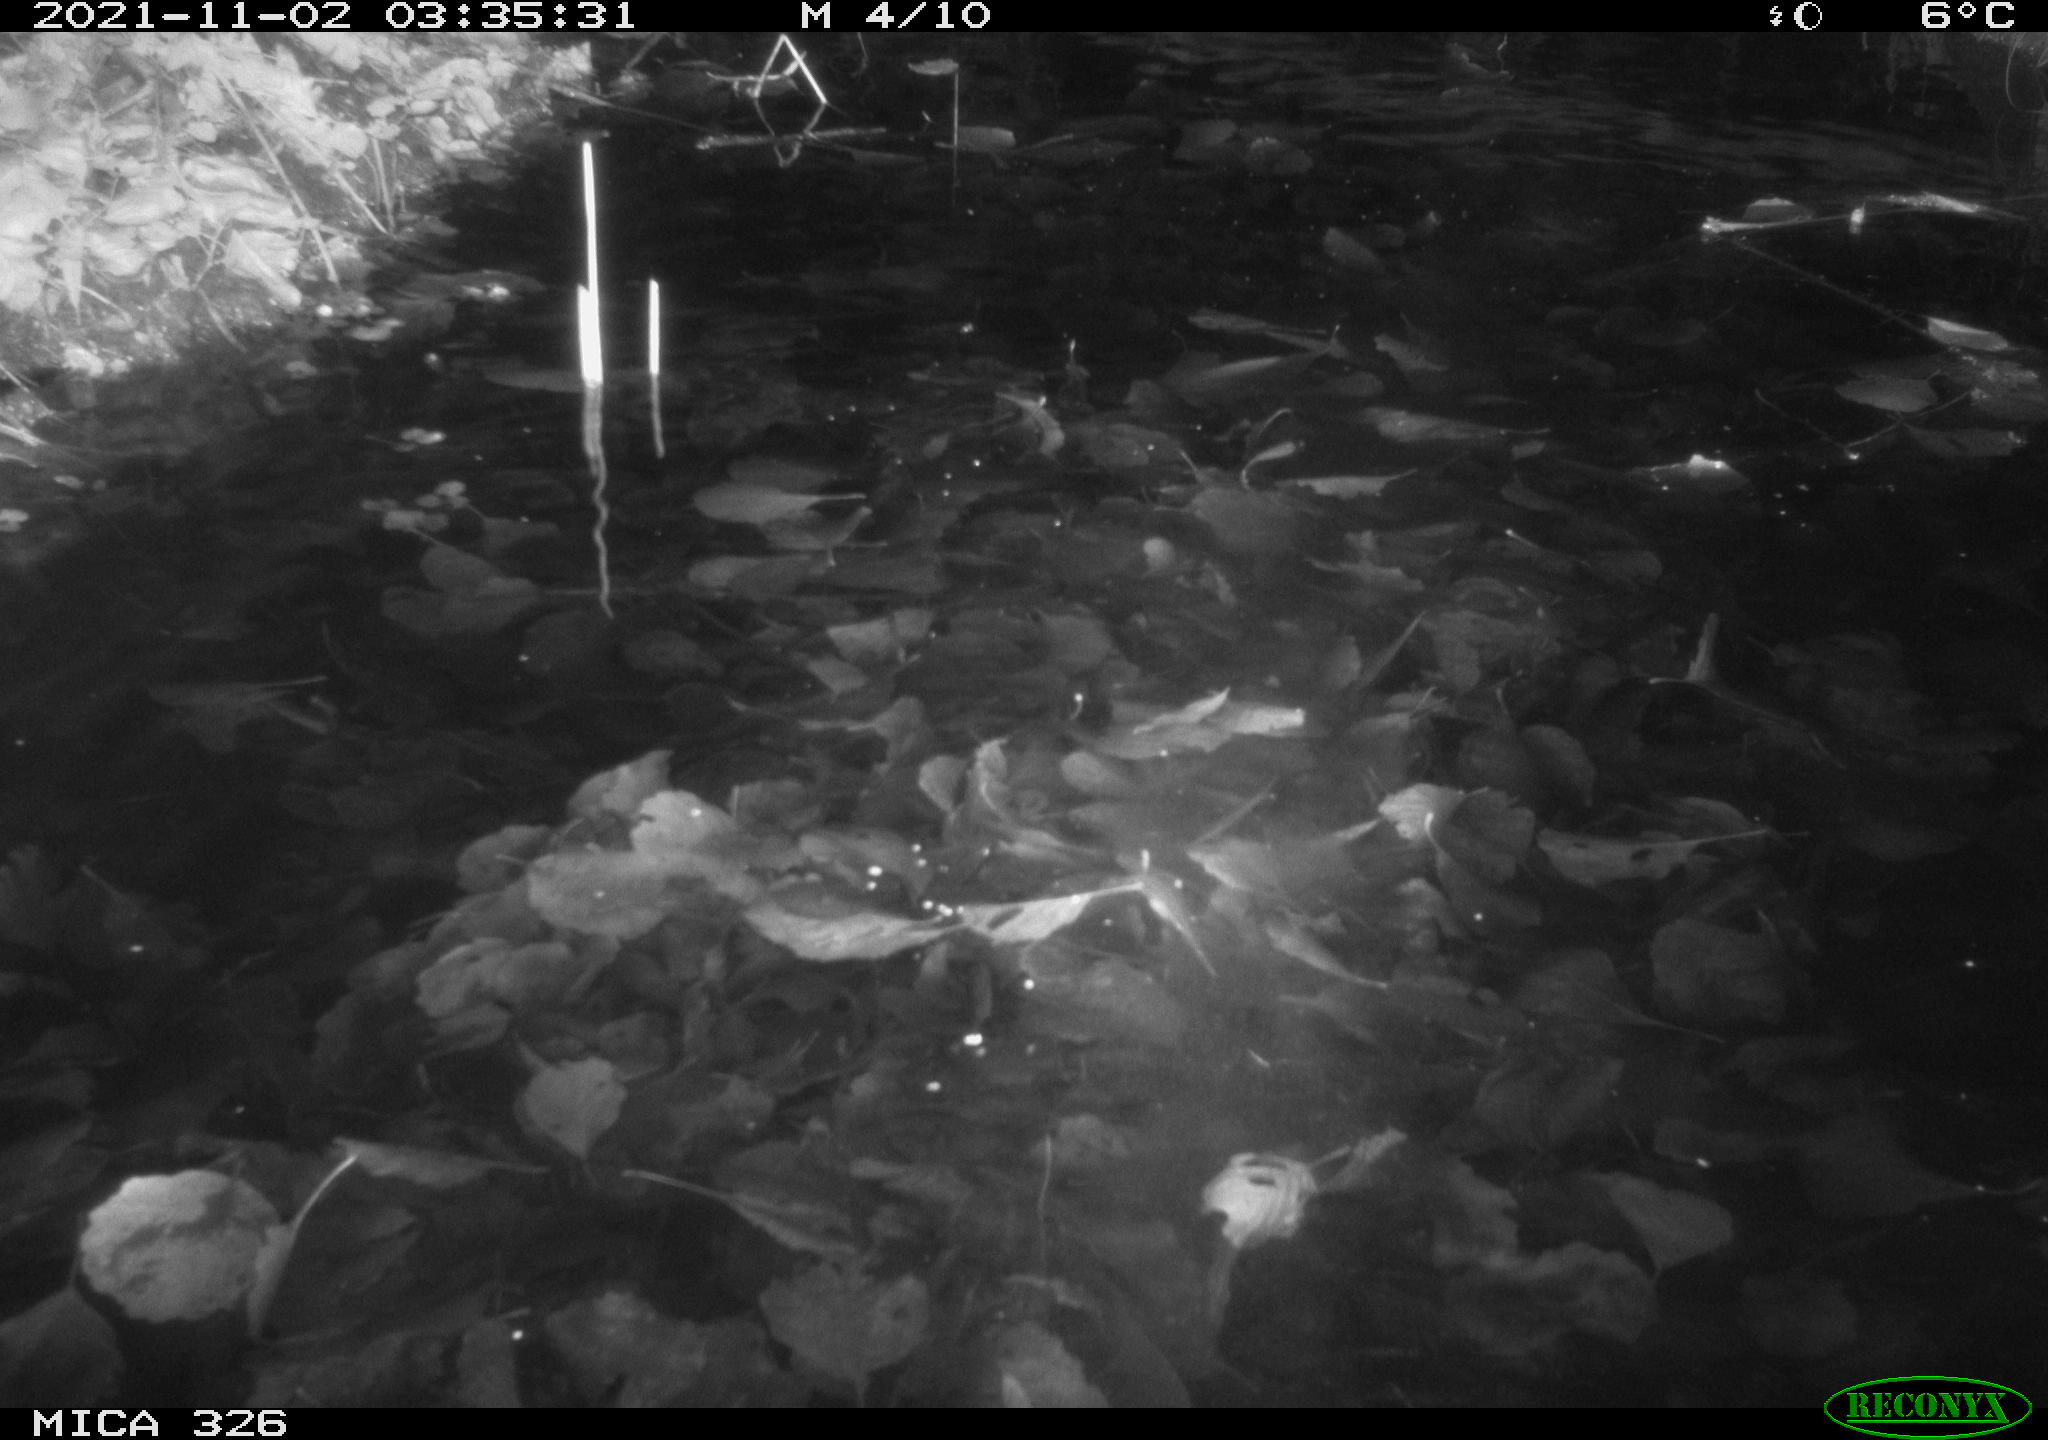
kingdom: Animalia
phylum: Chordata
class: Mammalia
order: Rodentia
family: Cricetidae
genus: Ondatra
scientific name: Ondatra zibethicus
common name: Muskrat
